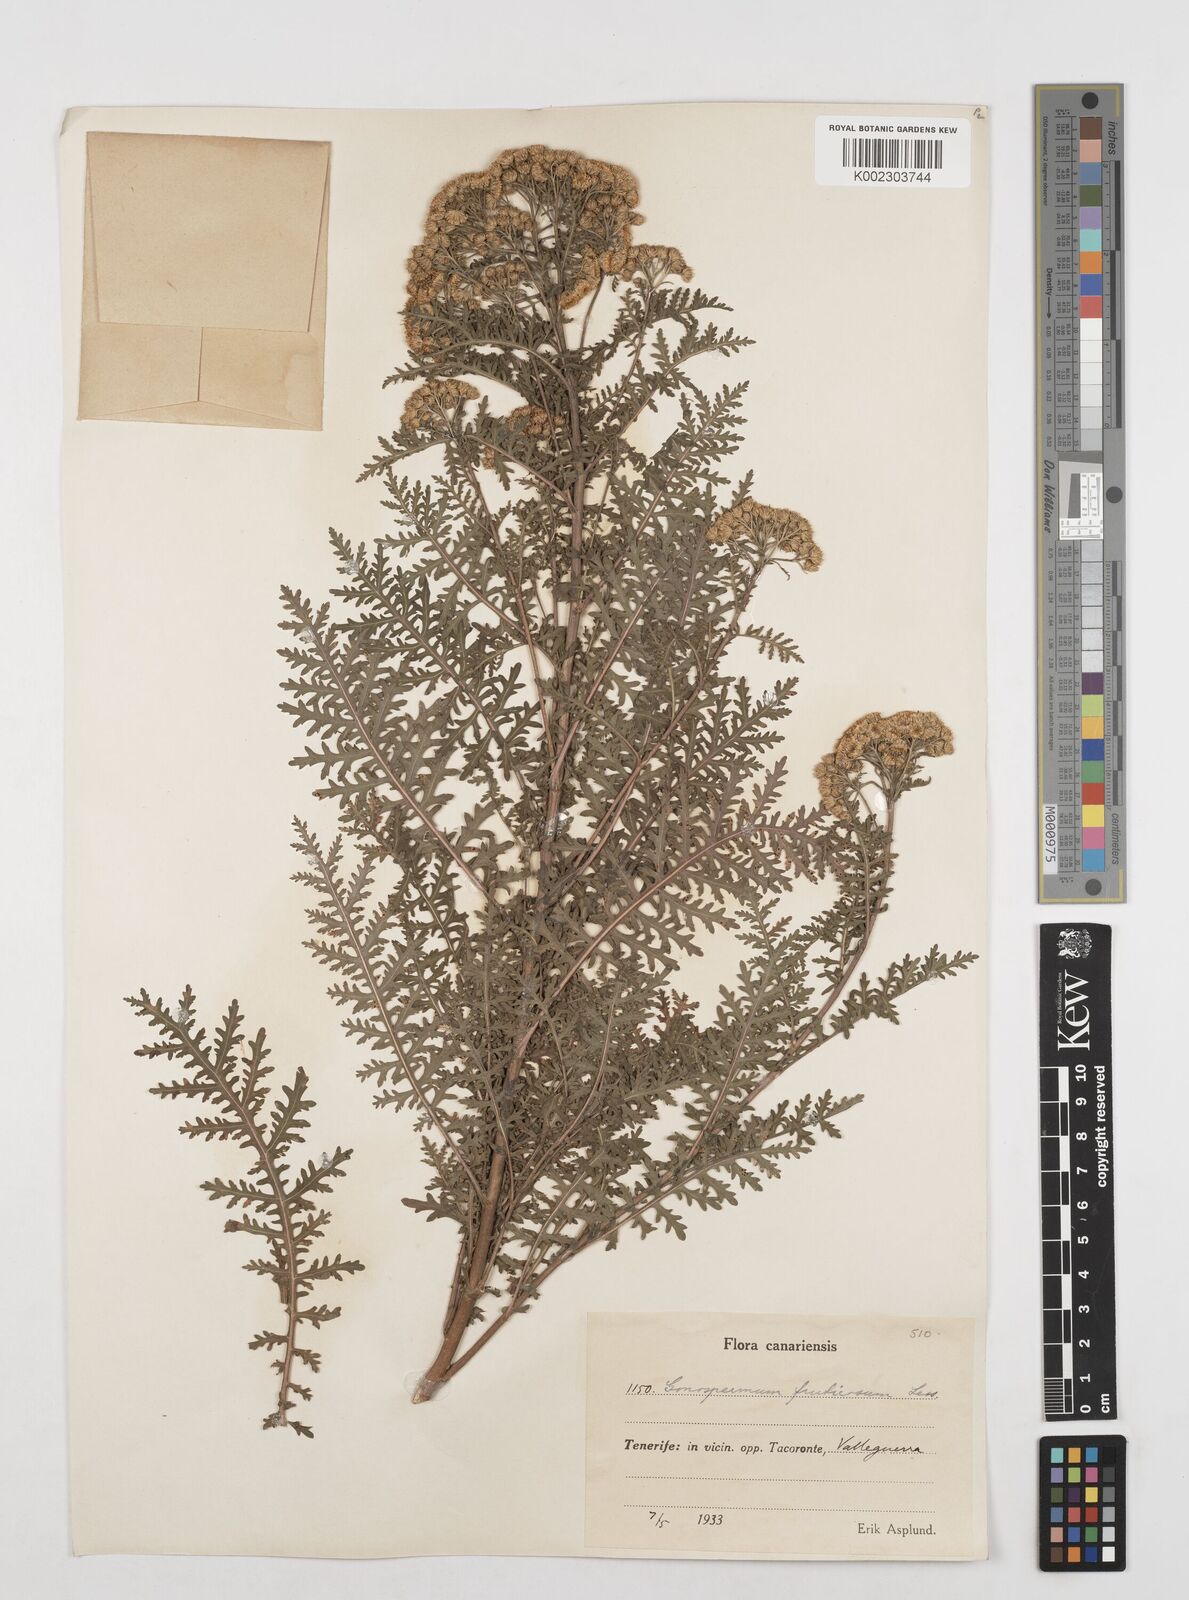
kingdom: Plantae
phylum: Tracheophyta
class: Magnoliopsida
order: Asterales
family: Asteraceae
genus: Gonospermum
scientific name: Gonospermum fruticosum
